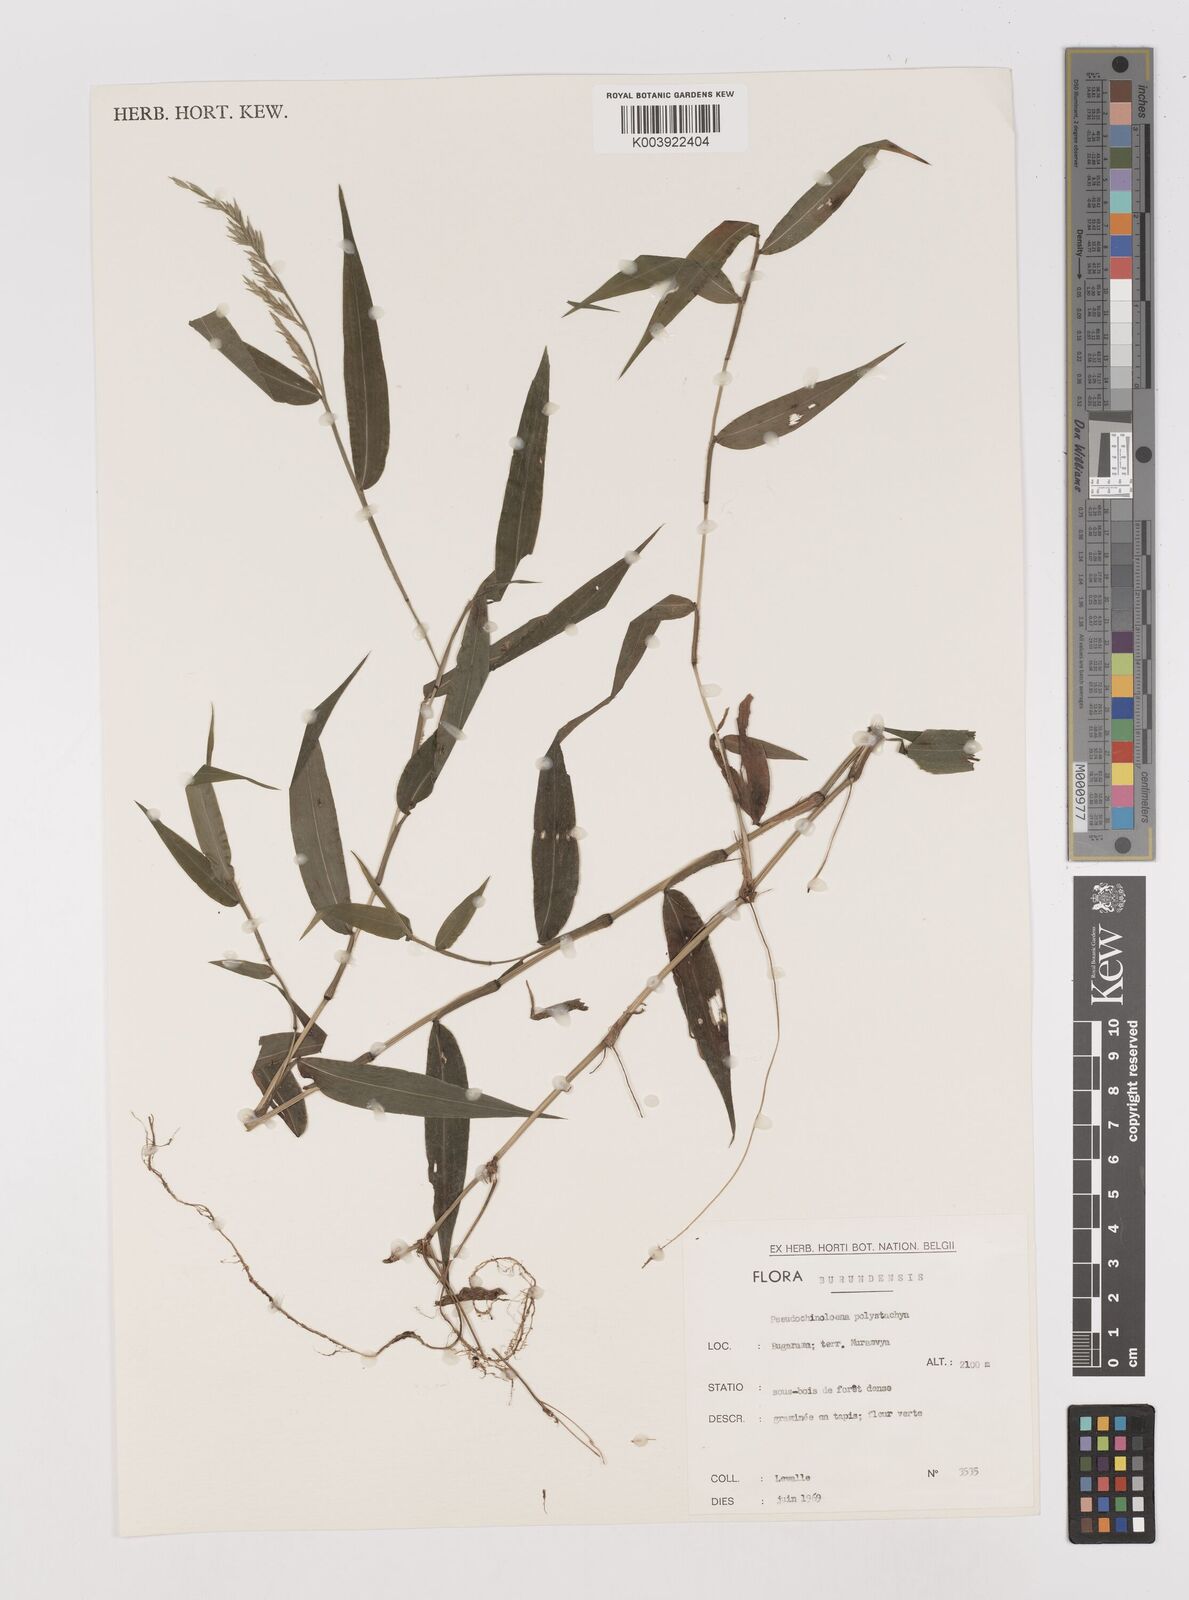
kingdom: Plantae
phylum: Tracheophyta
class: Liliopsida
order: Poales
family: Poaceae
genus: Poecilostachys
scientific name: Poecilostachys oplismenoides
